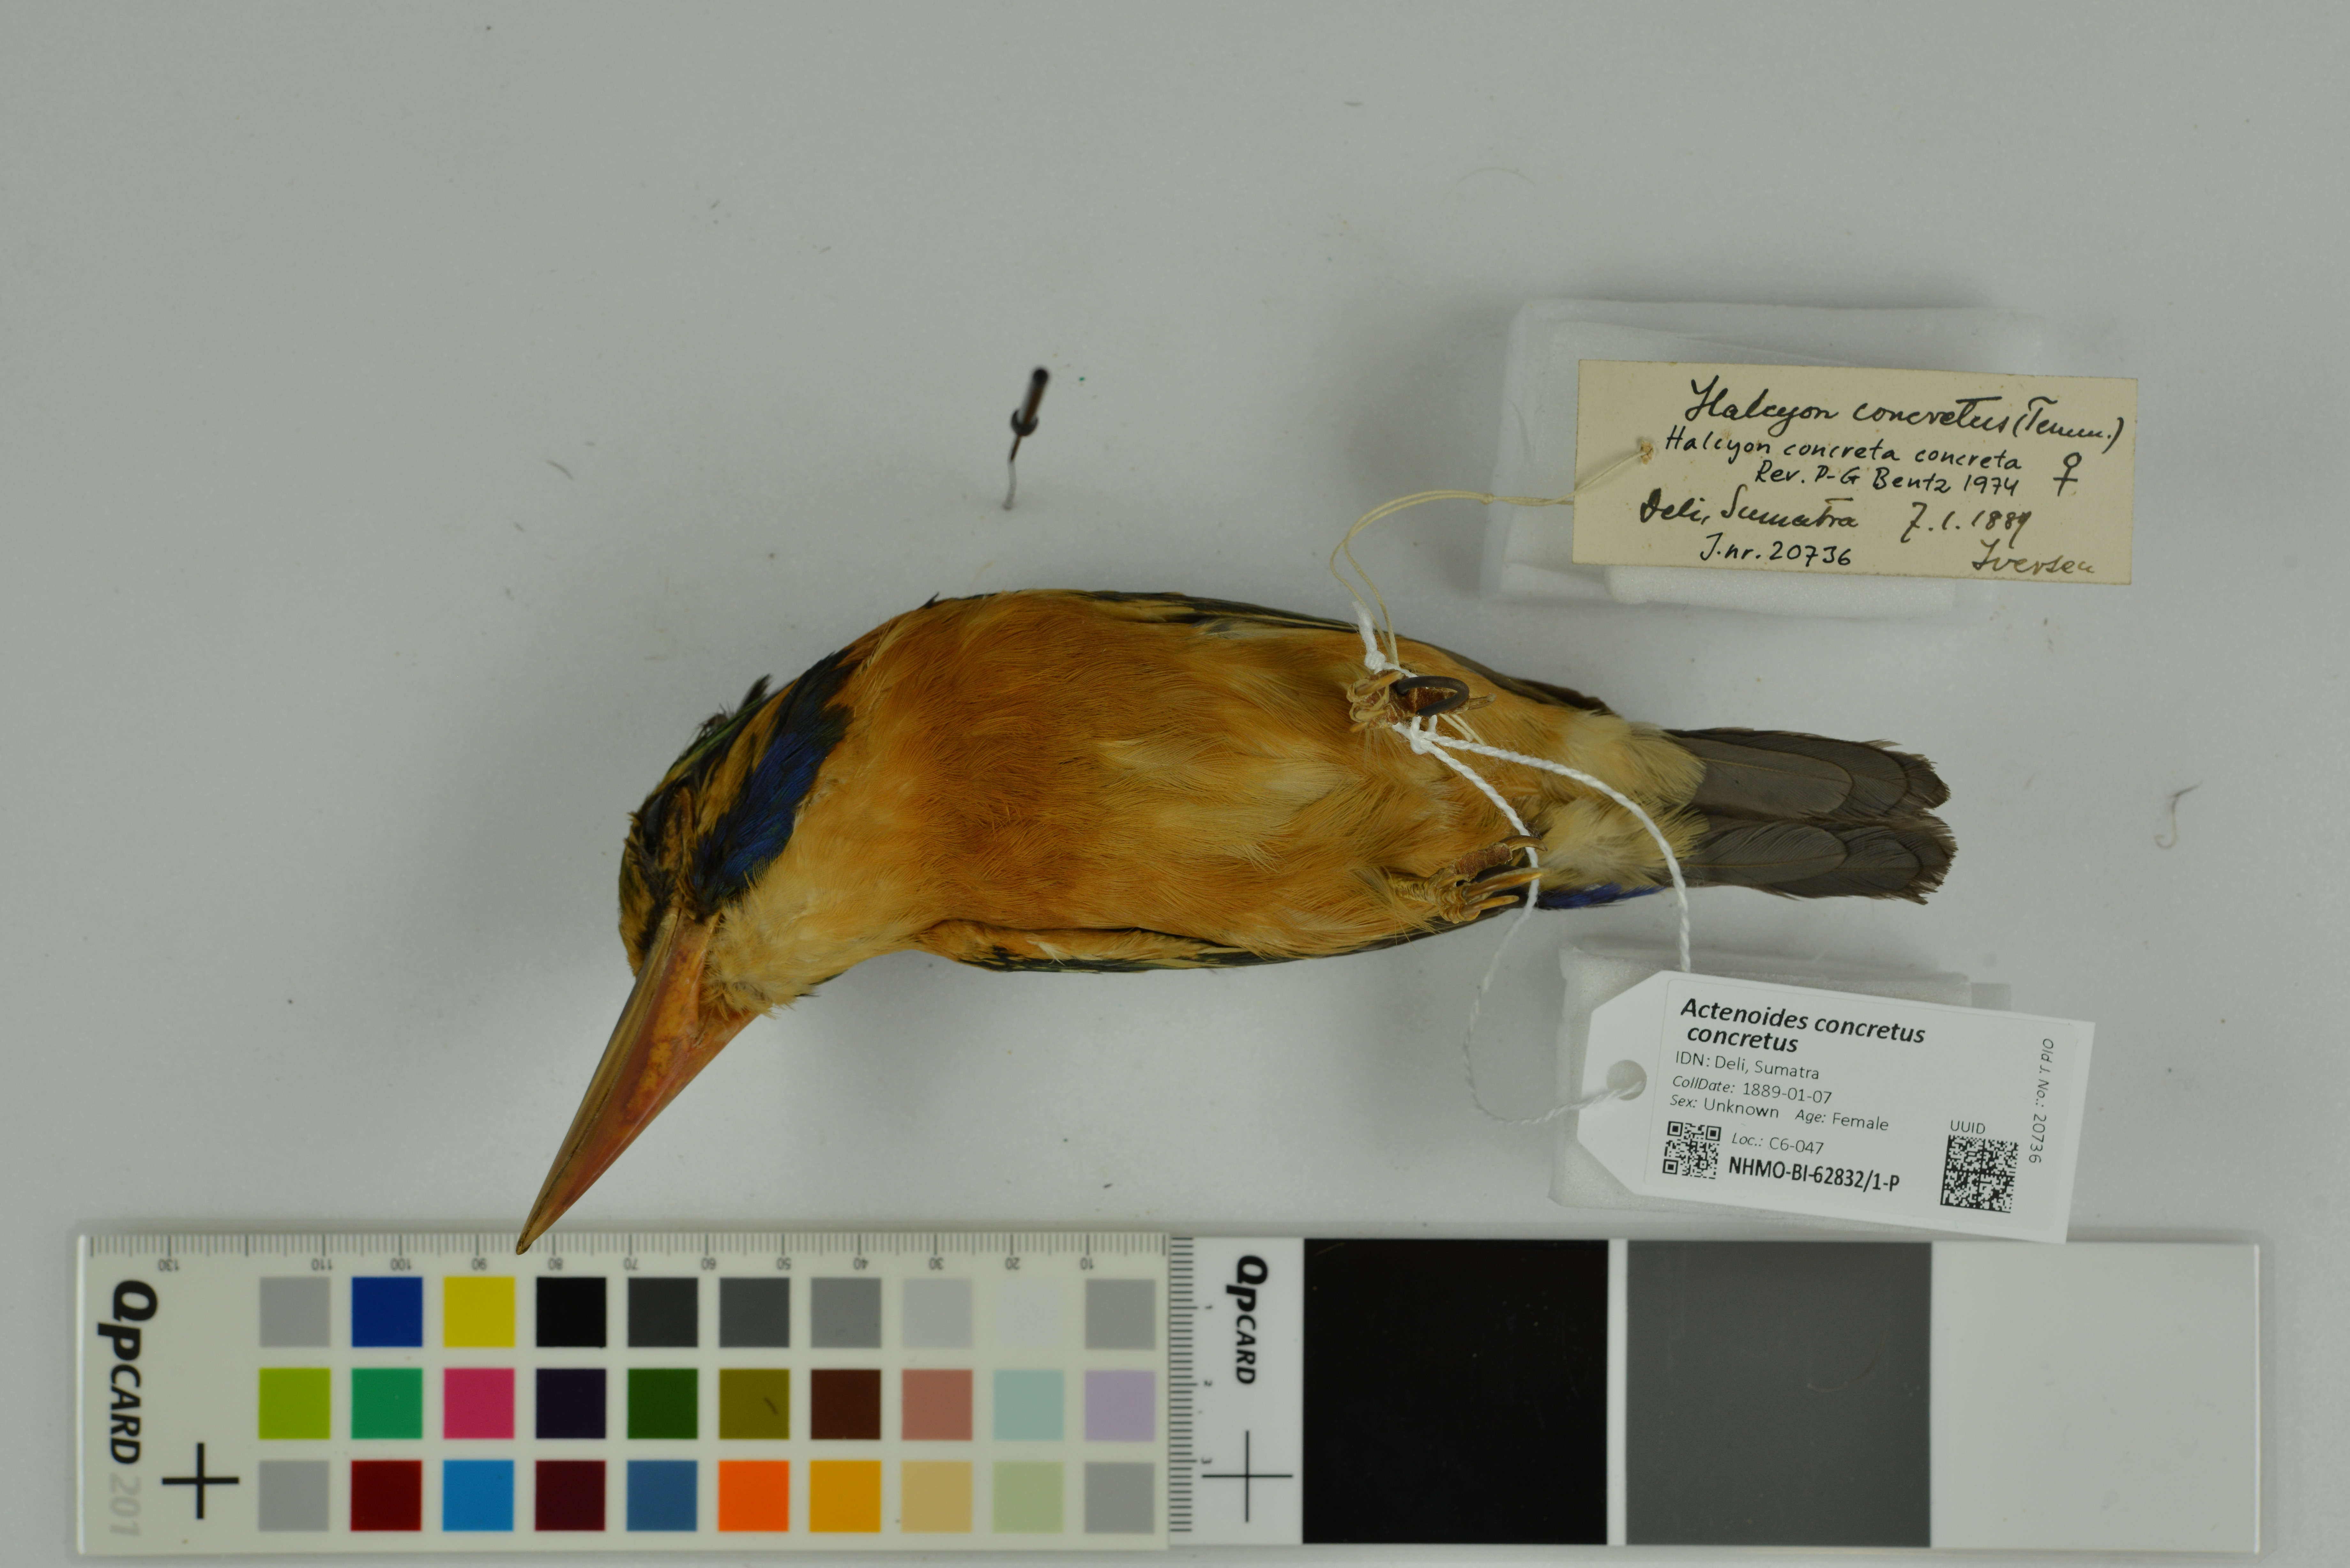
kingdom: Animalia
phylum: Chordata
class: Aves
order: Coraciiformes
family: Alcedinidae
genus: Actenoides
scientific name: Actenoides concretus
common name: Rufous-collared kingfisher
